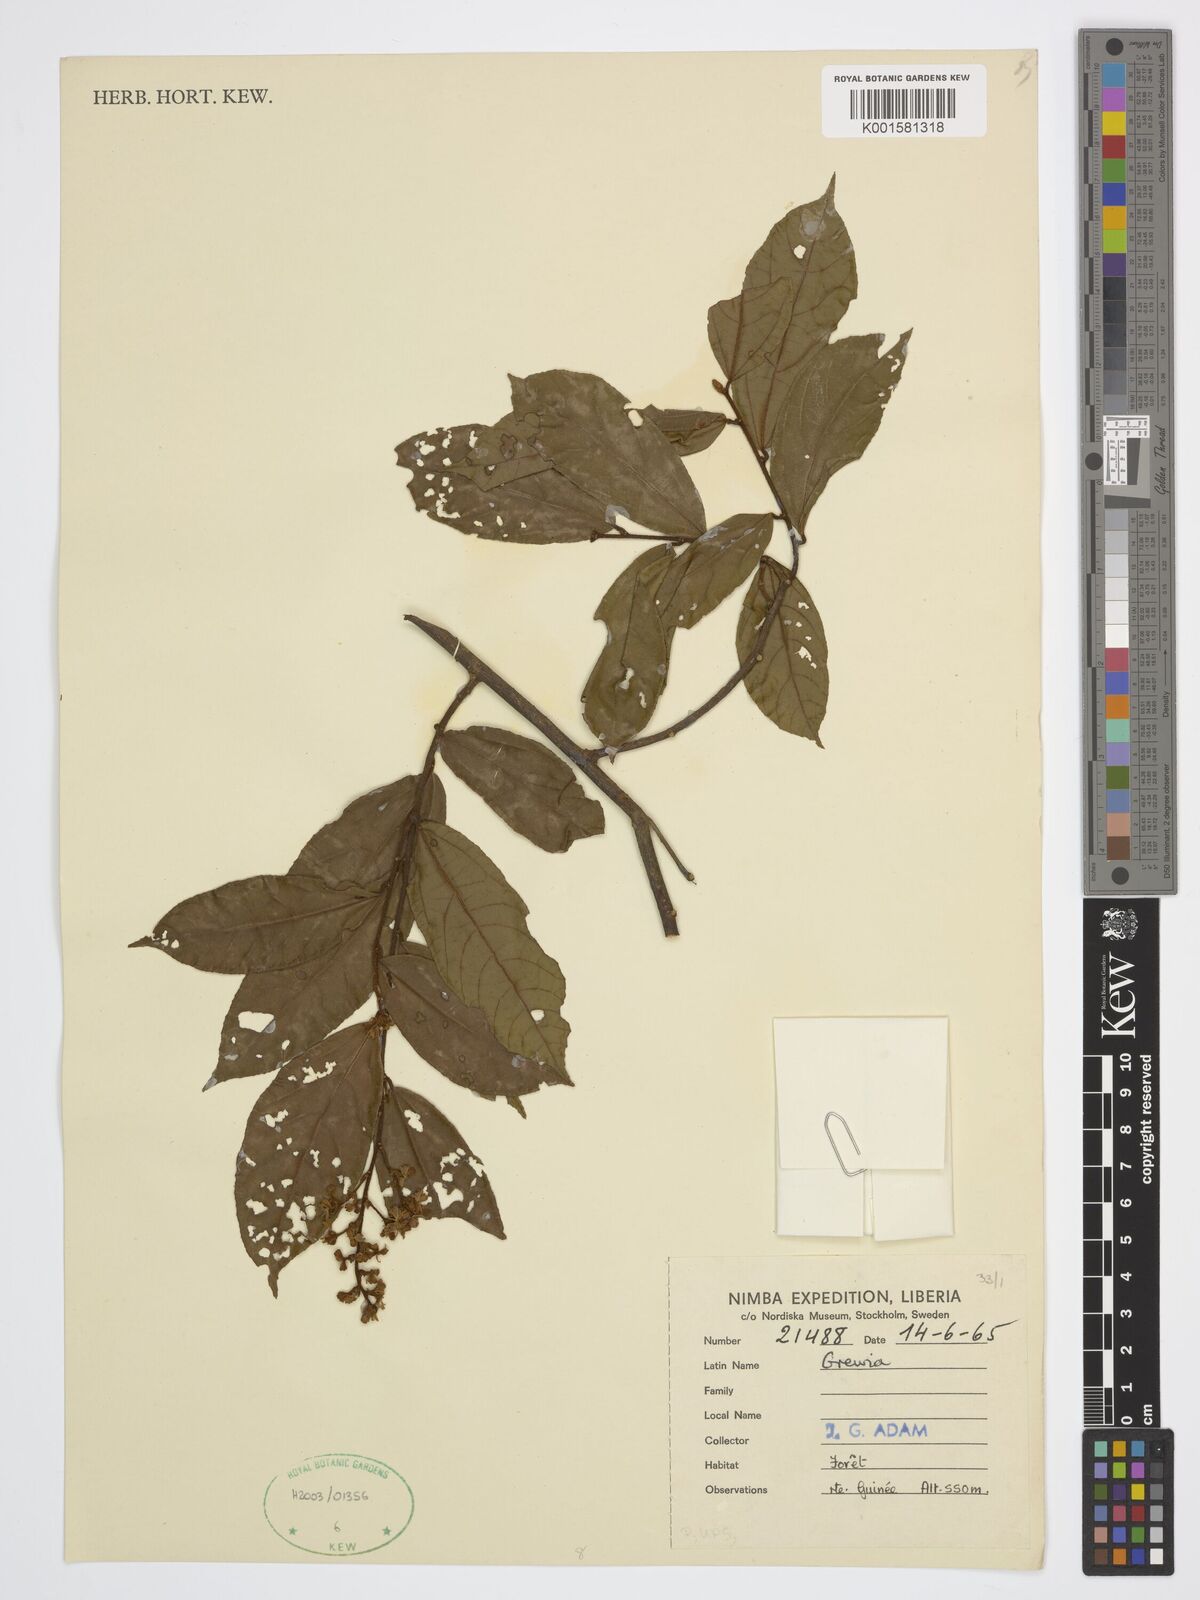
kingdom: Plantae
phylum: Tracheophyta
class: Magnoliopsida
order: Malvales
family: Malvaceae
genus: Grewia
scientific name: Grewia
